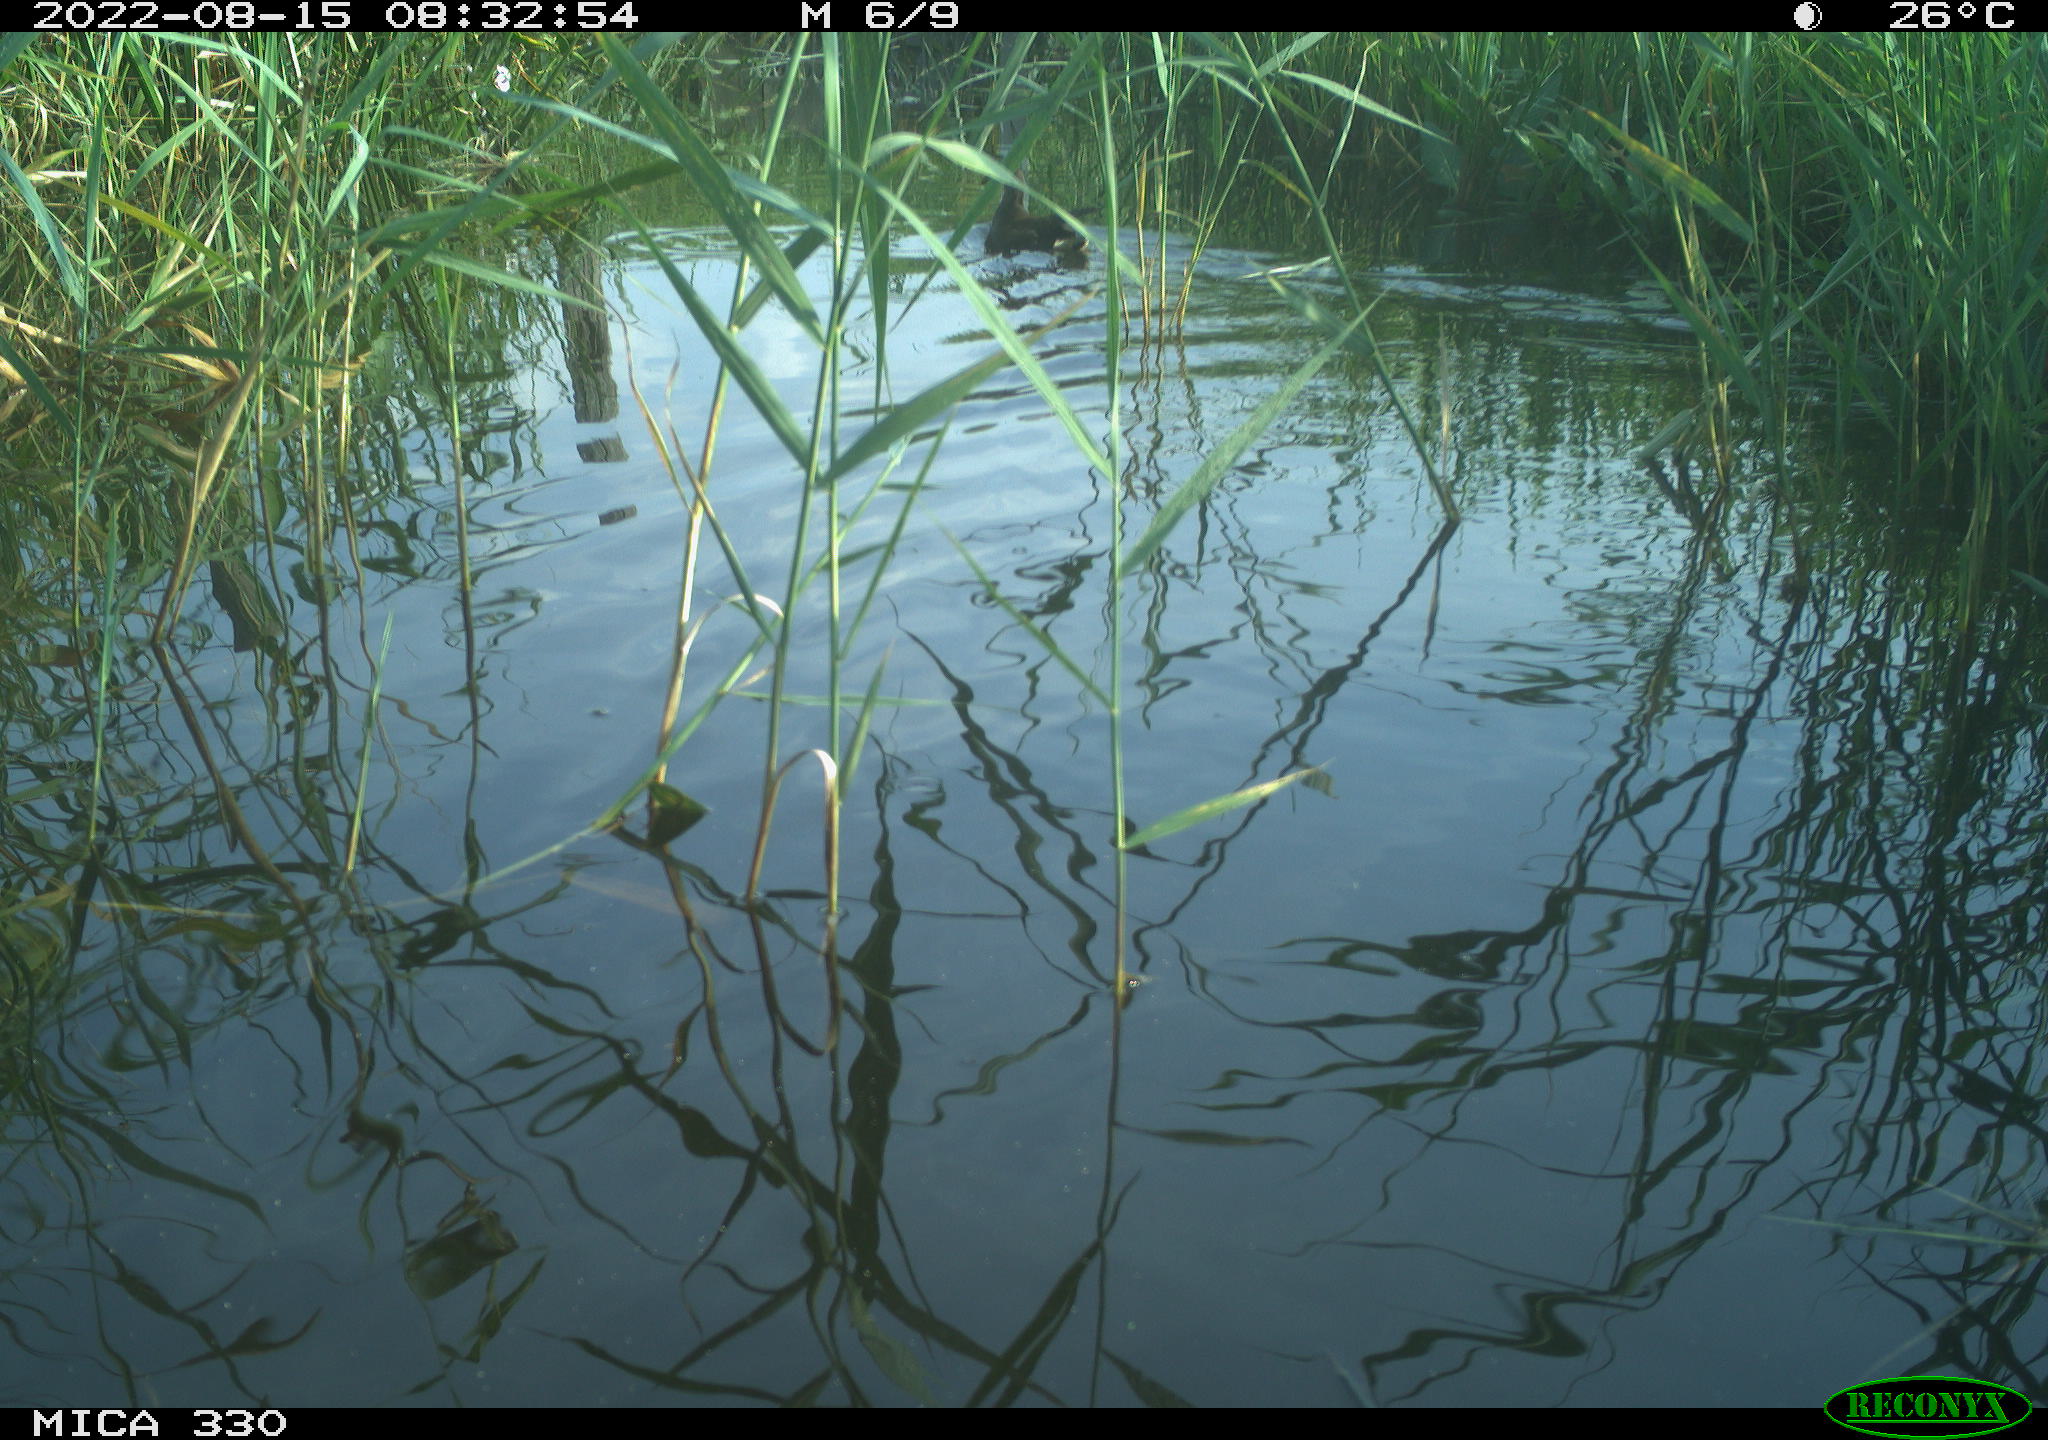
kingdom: Animalia
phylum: Chordata
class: Aves
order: Gruiformes
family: Rallidae
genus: Gallinula
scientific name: Gallinula chloropus
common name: Common moorhen
